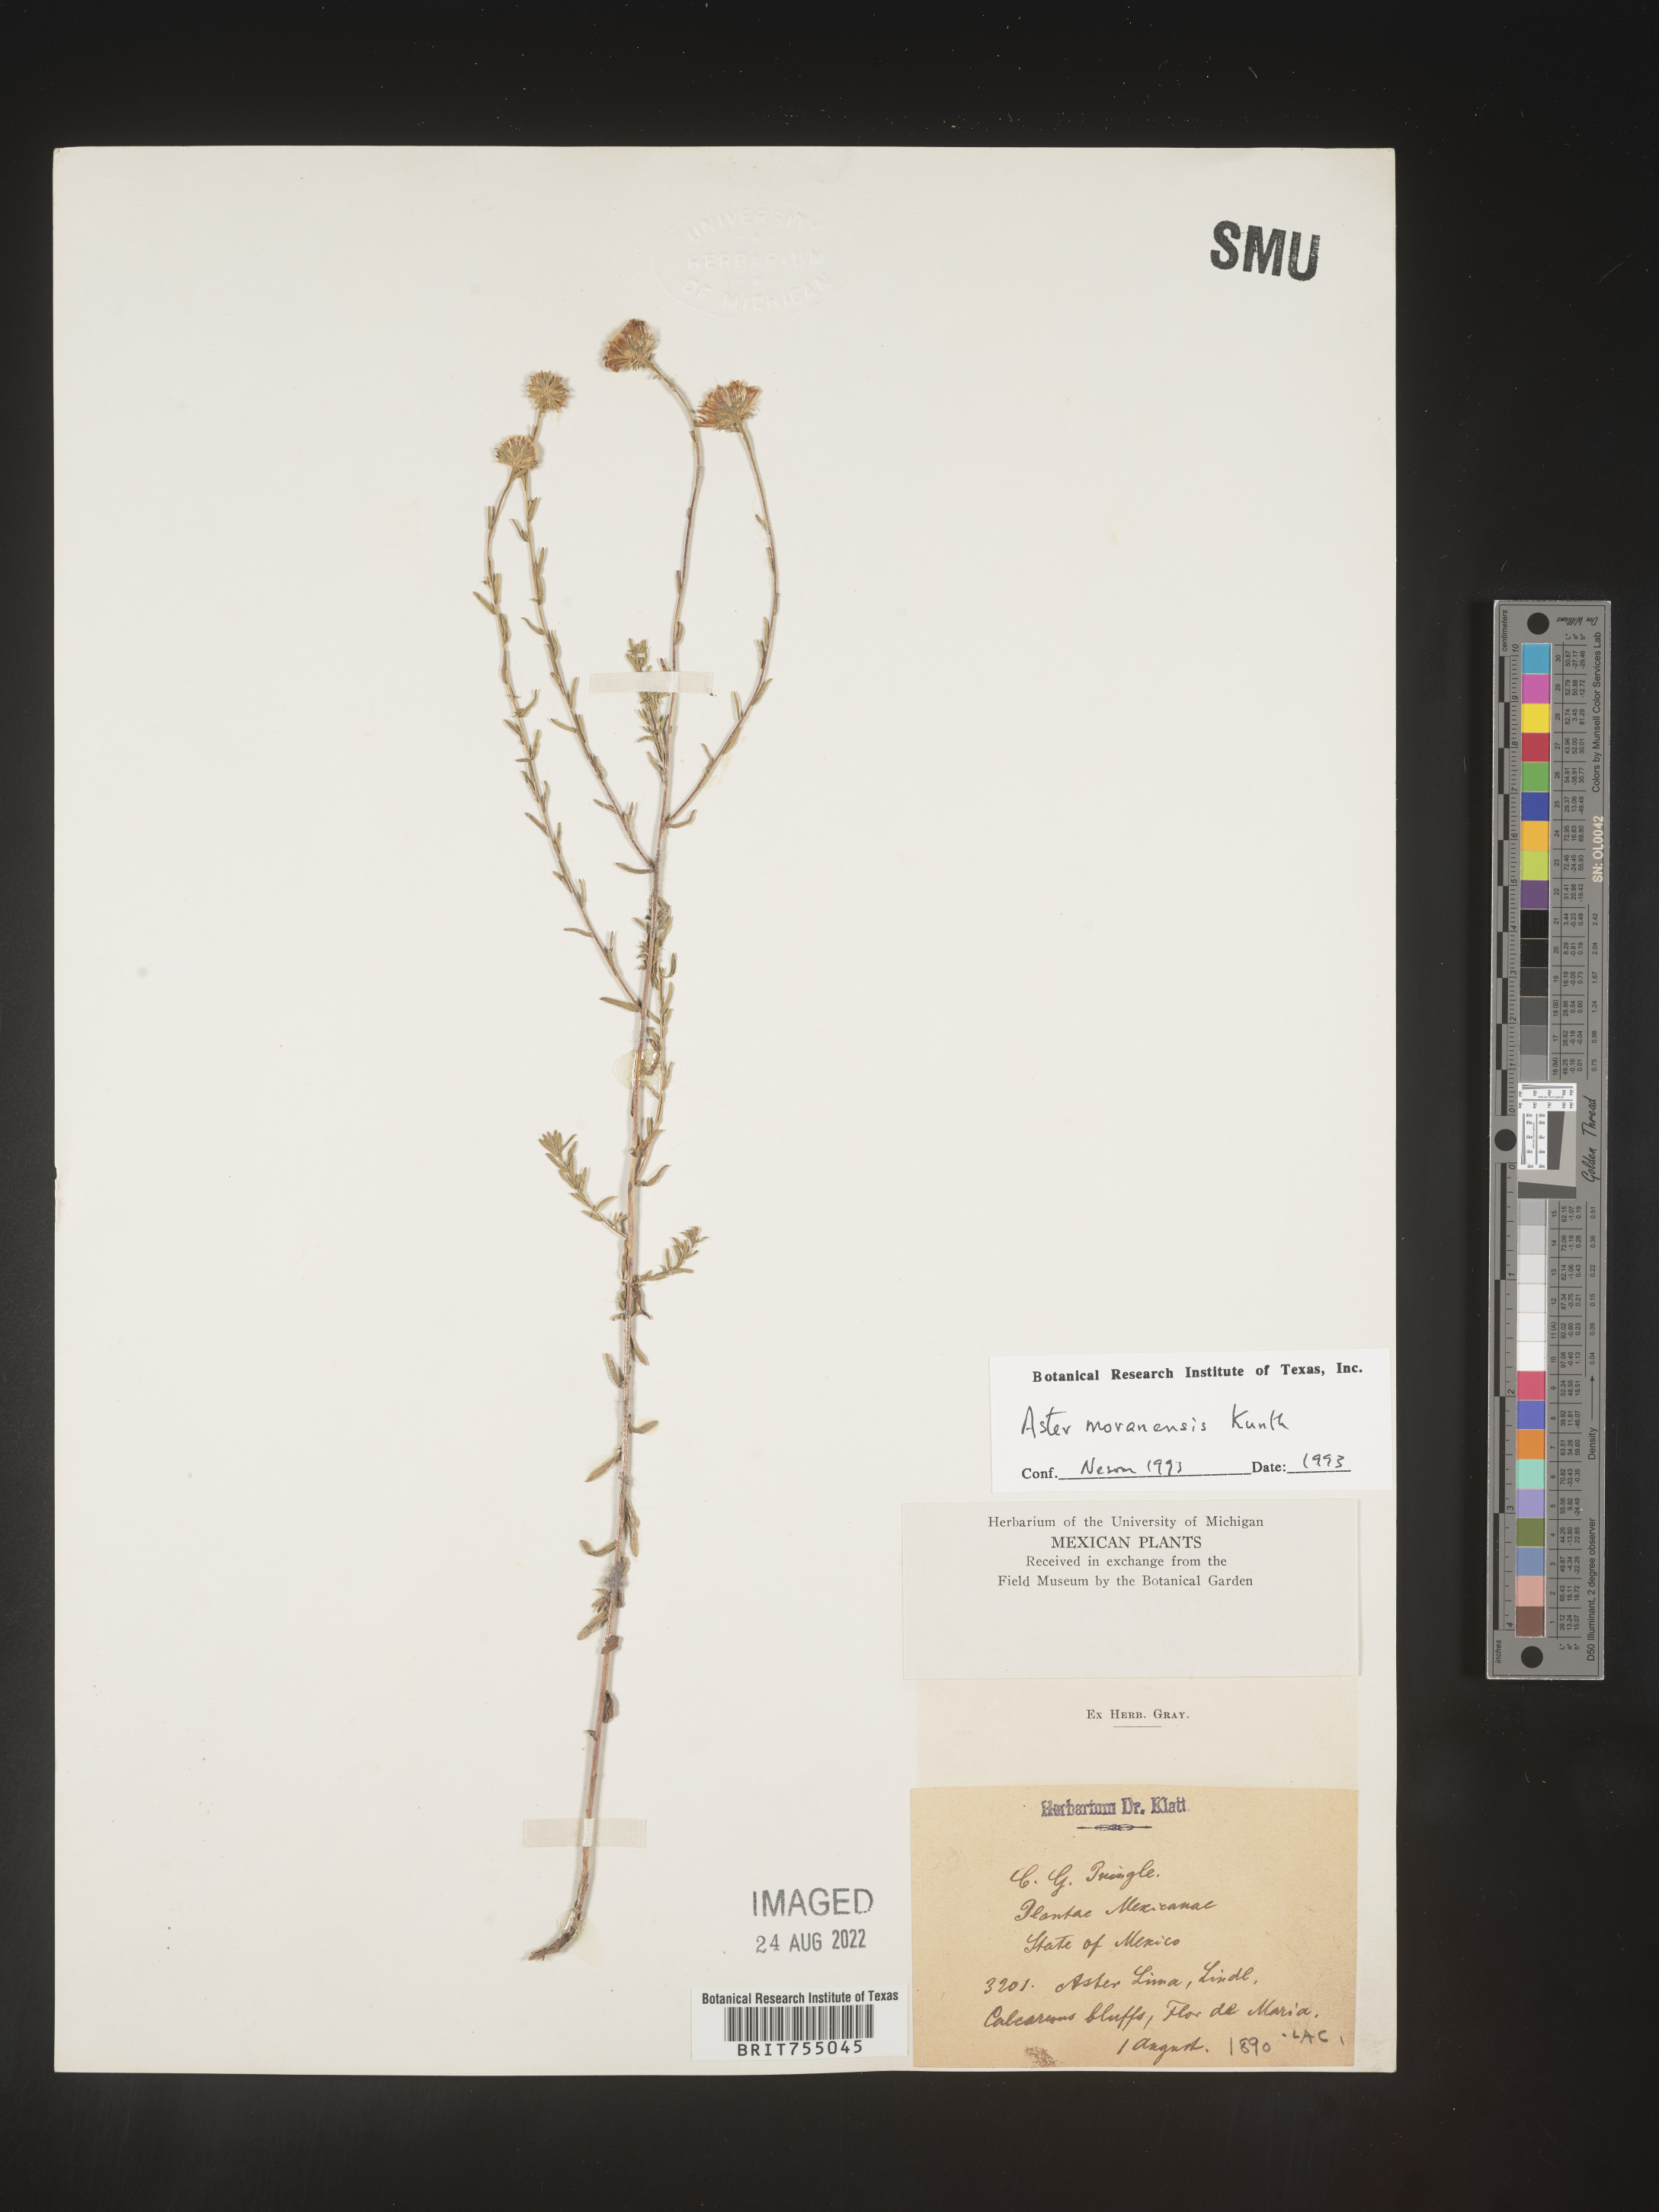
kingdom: Plantae
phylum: Tracheophyta
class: Magnoliopsida
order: Asterales
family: Asteraceae
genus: Symphyotrichum
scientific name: Symphyotrichum moranense
